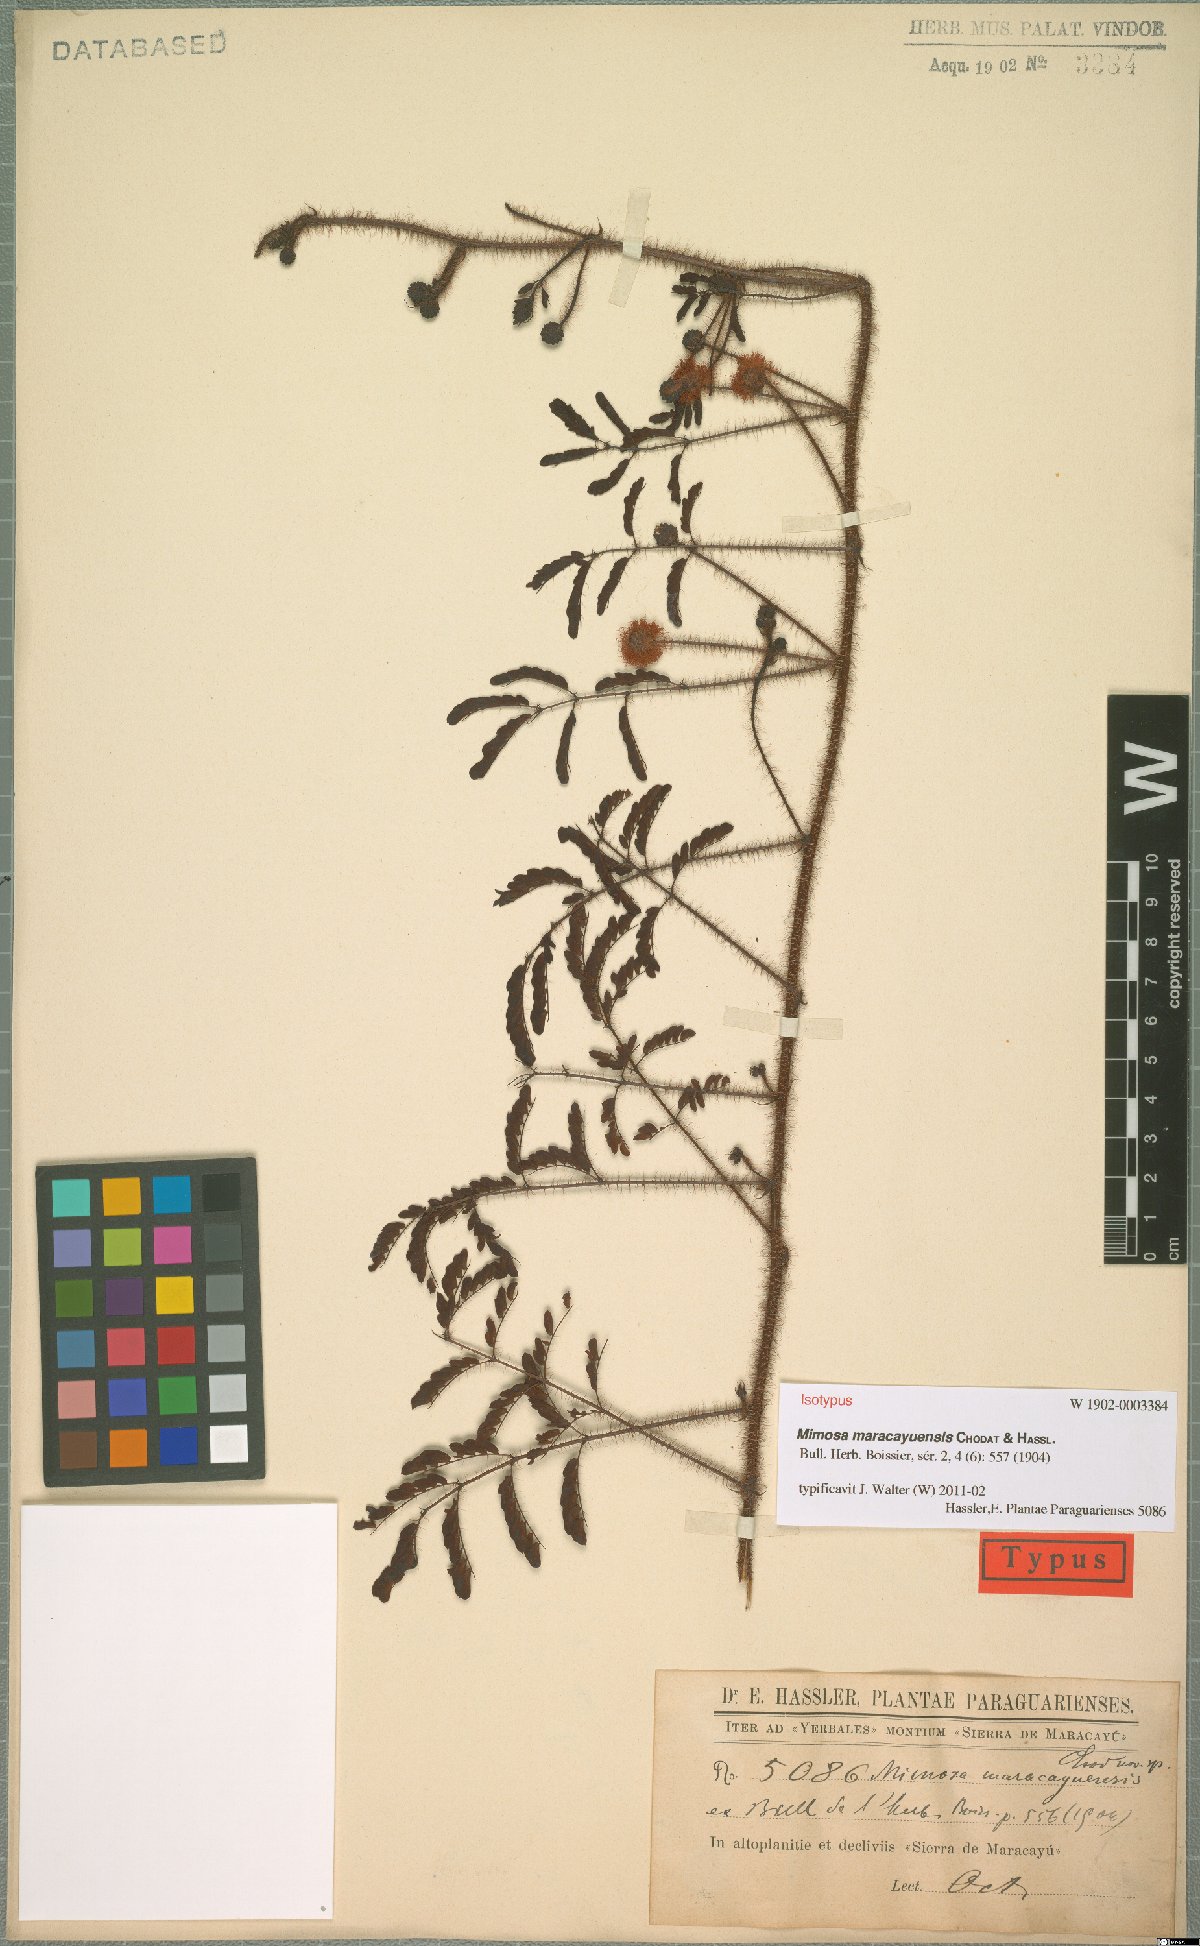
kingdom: Plantae
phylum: Tracheophyta
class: Magnoliopsida
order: Fabales
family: Fabaceae
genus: Mimosa
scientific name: Mimosa maracayuensis
